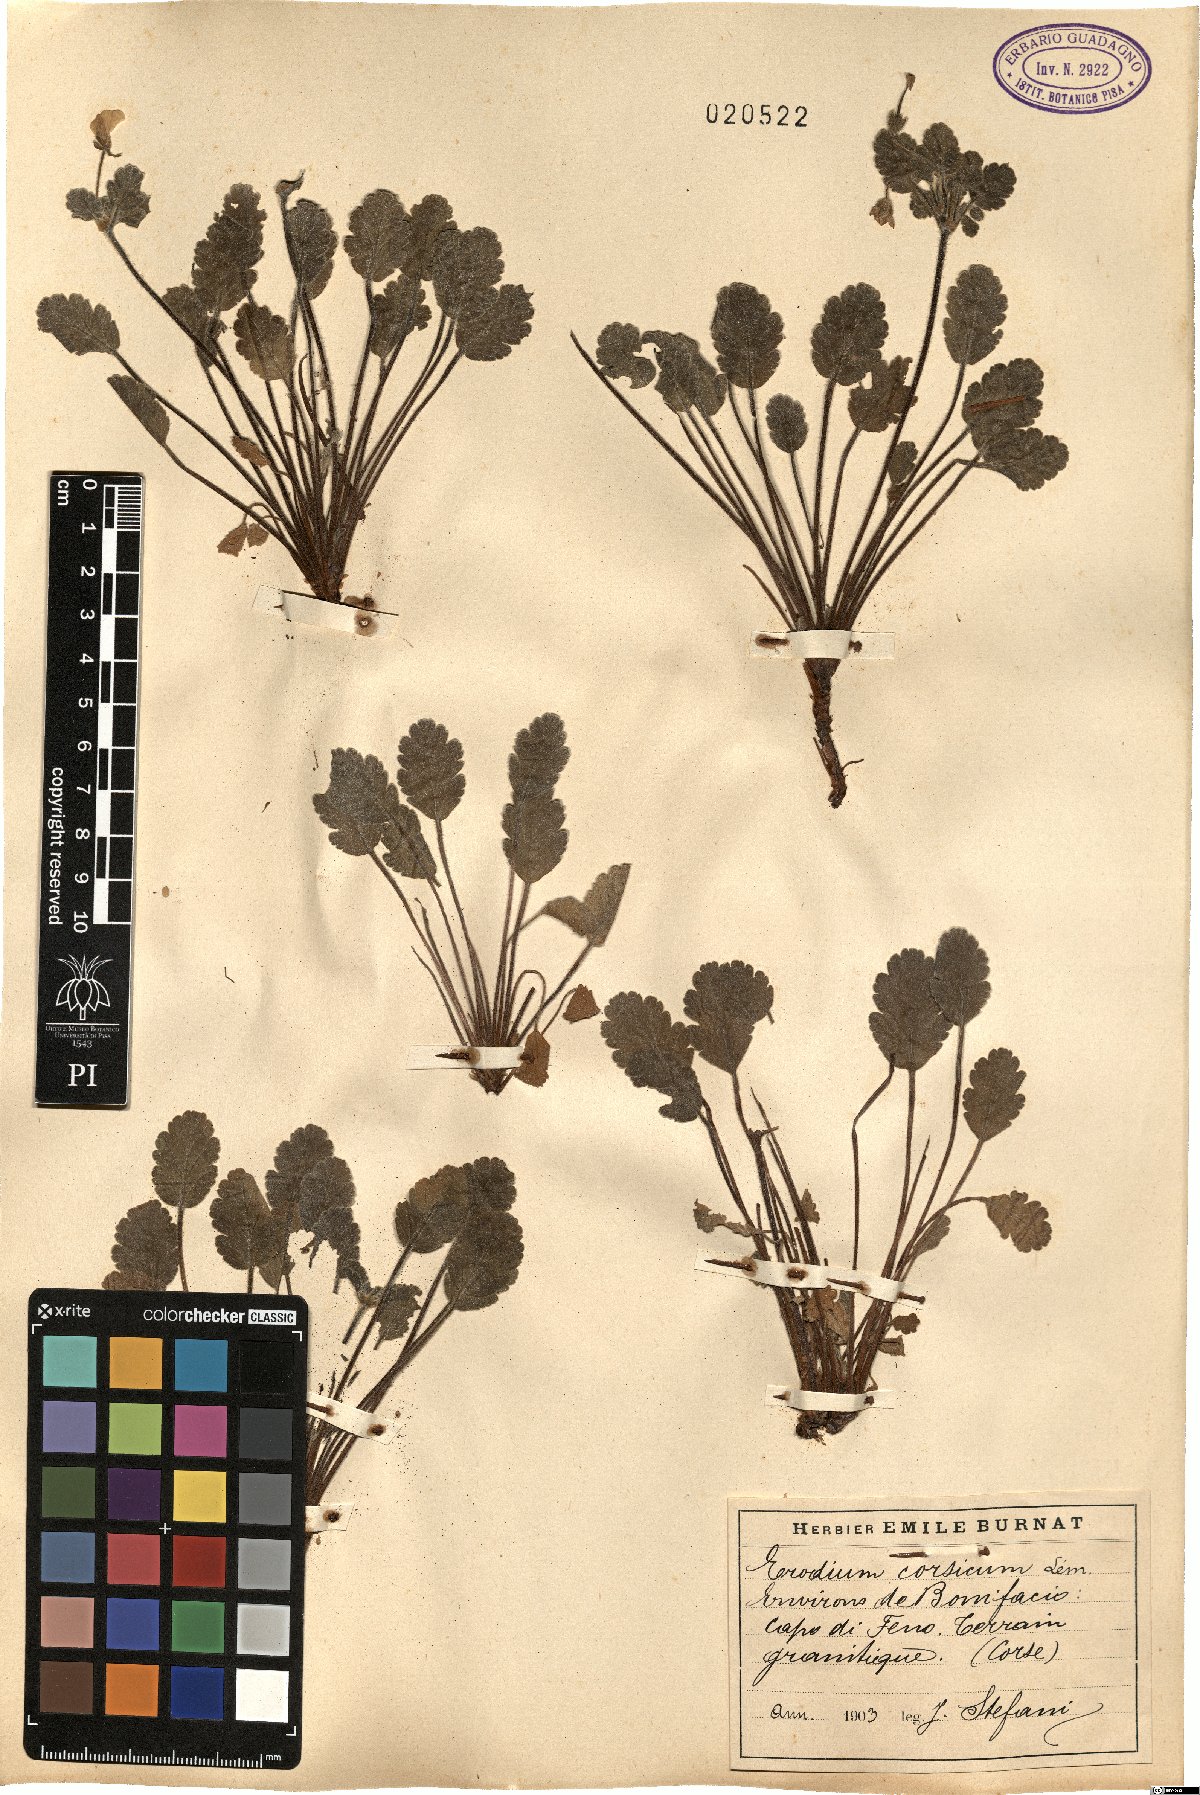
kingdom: Plantae
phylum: Tracheophyta
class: Magnoliopsida
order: Geraniales
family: Geraniaceae
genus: Erodium
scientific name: Erodium corsicum
